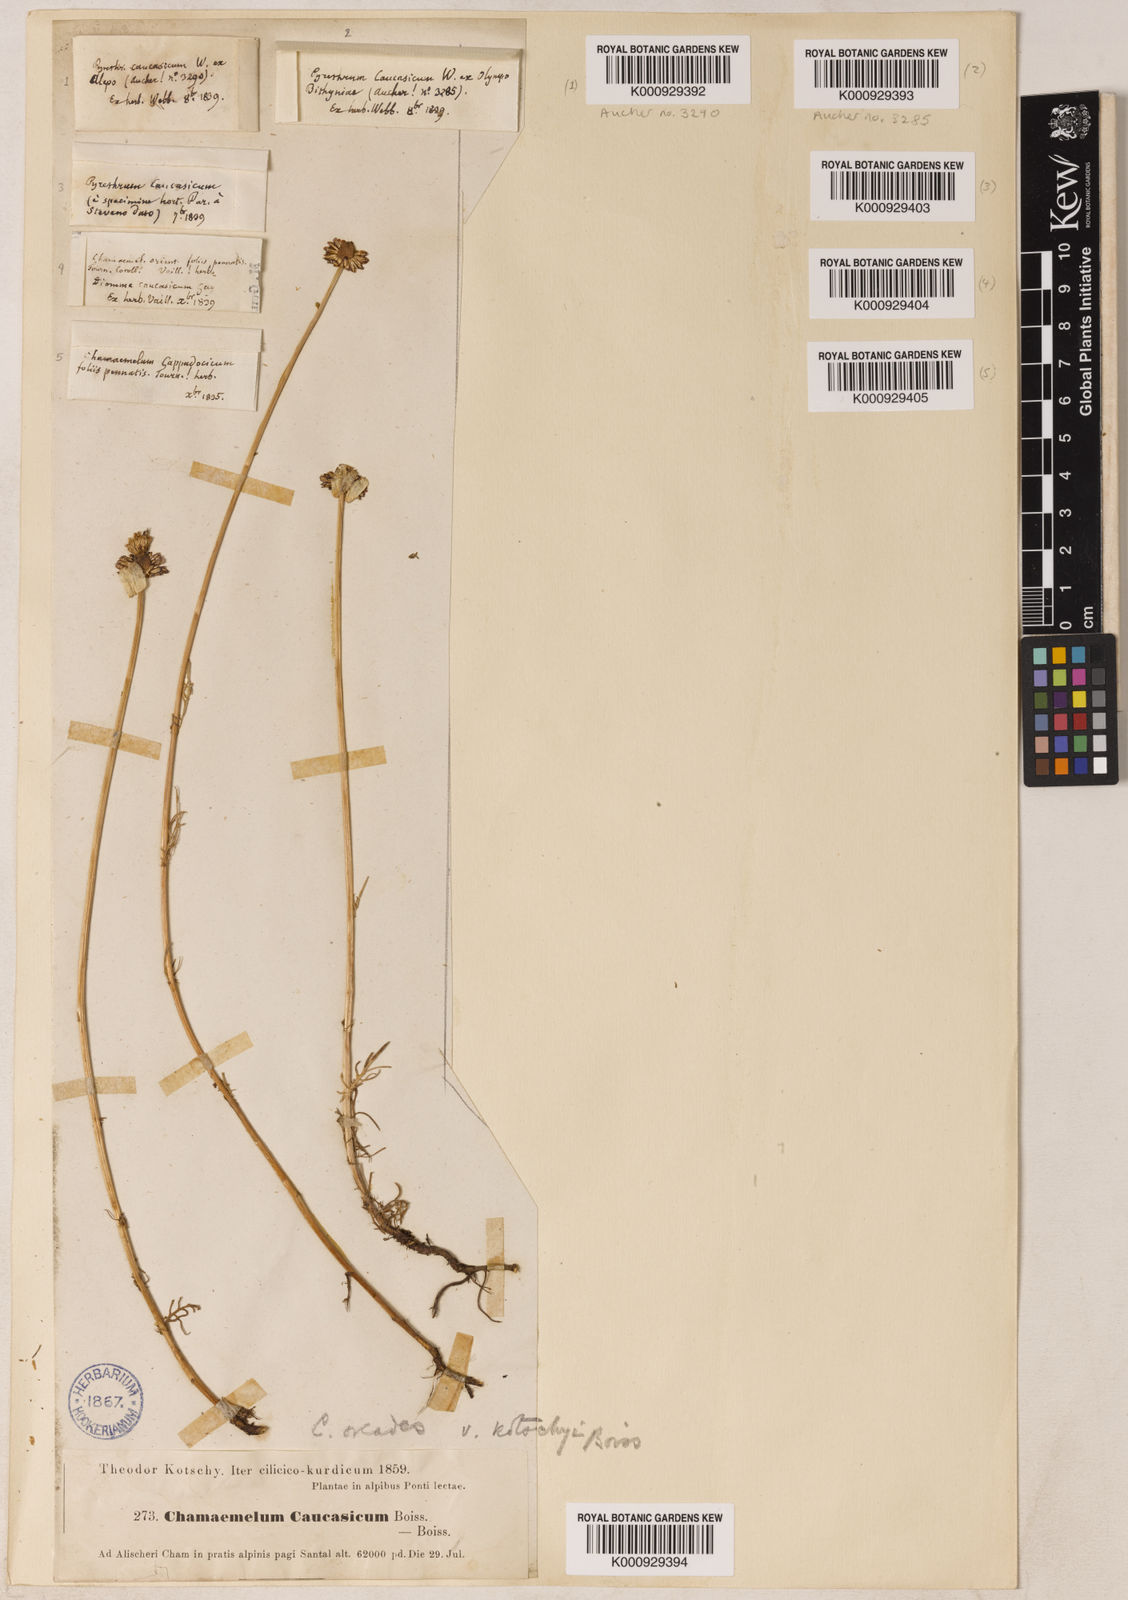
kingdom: Plantae
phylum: Tracheophyta
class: Magnoliopsida
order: Asterales
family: Asteraceae
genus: Tripleurospermum
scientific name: Tripleurospermum caucasicum
